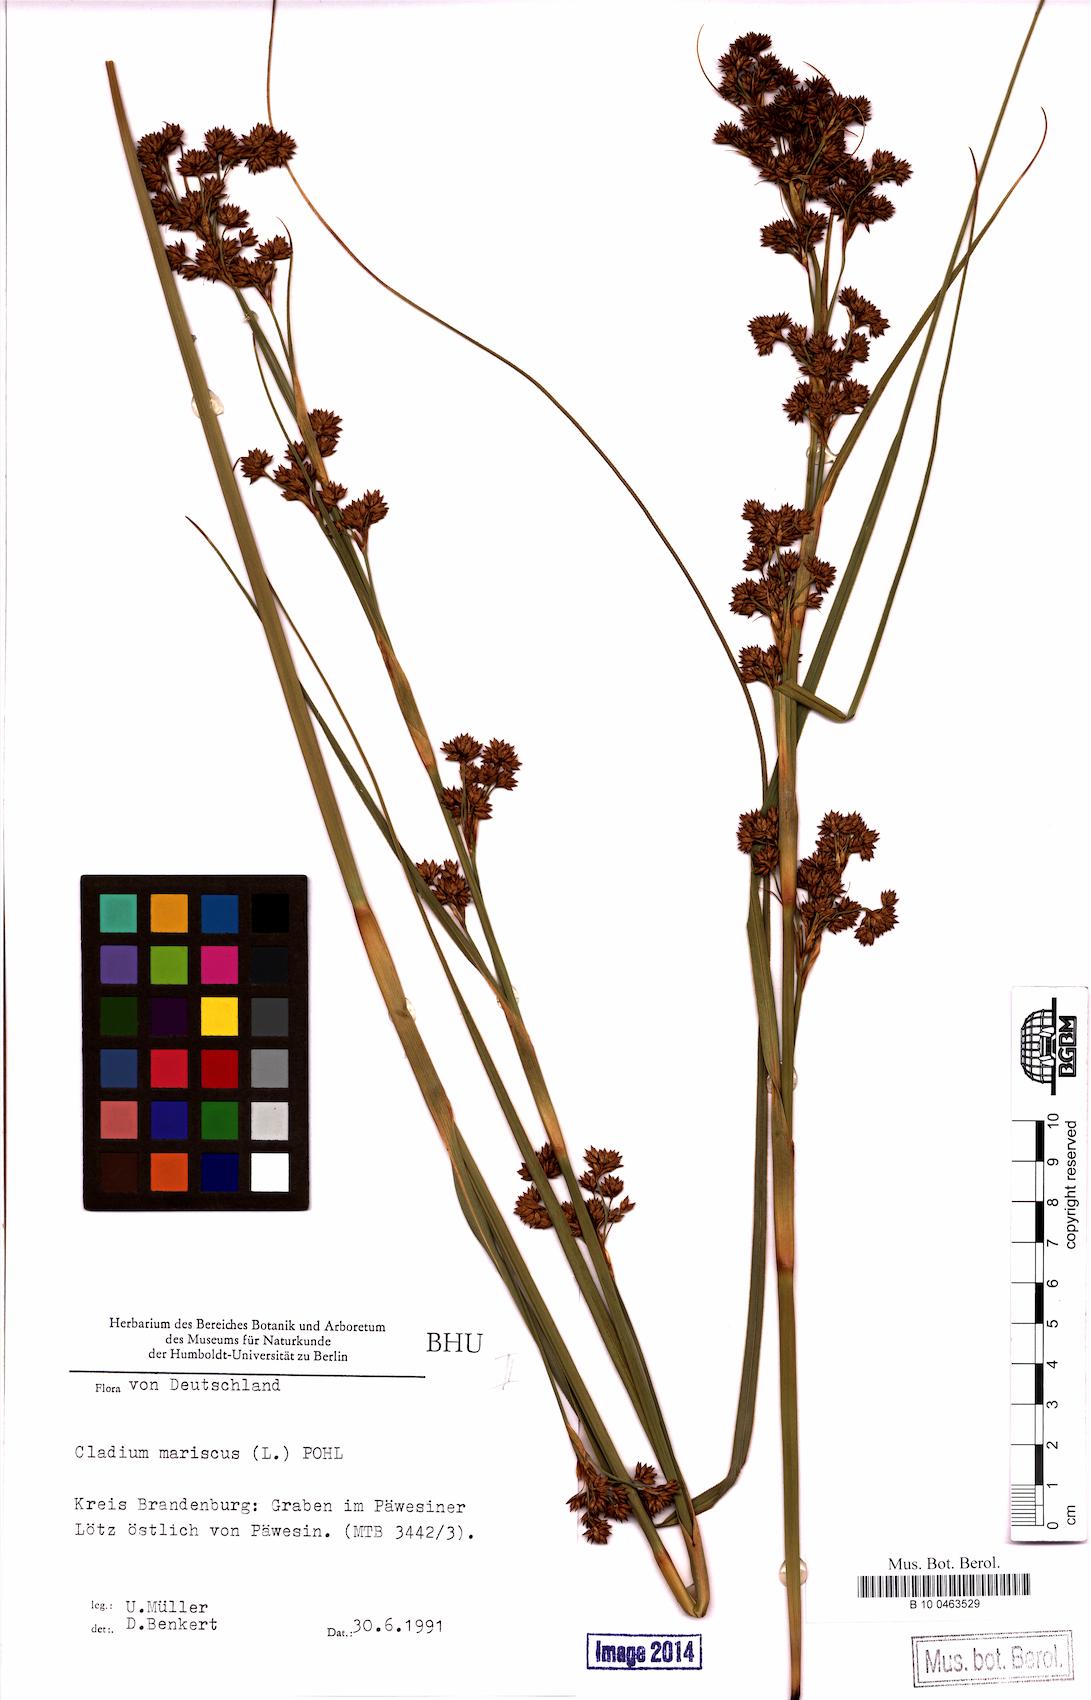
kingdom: Plantae
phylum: Tracheophyta
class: Liliopsida
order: Poales
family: Cyperaceae
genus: Cladium
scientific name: Cladium mariscus
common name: Great fen-sedge
